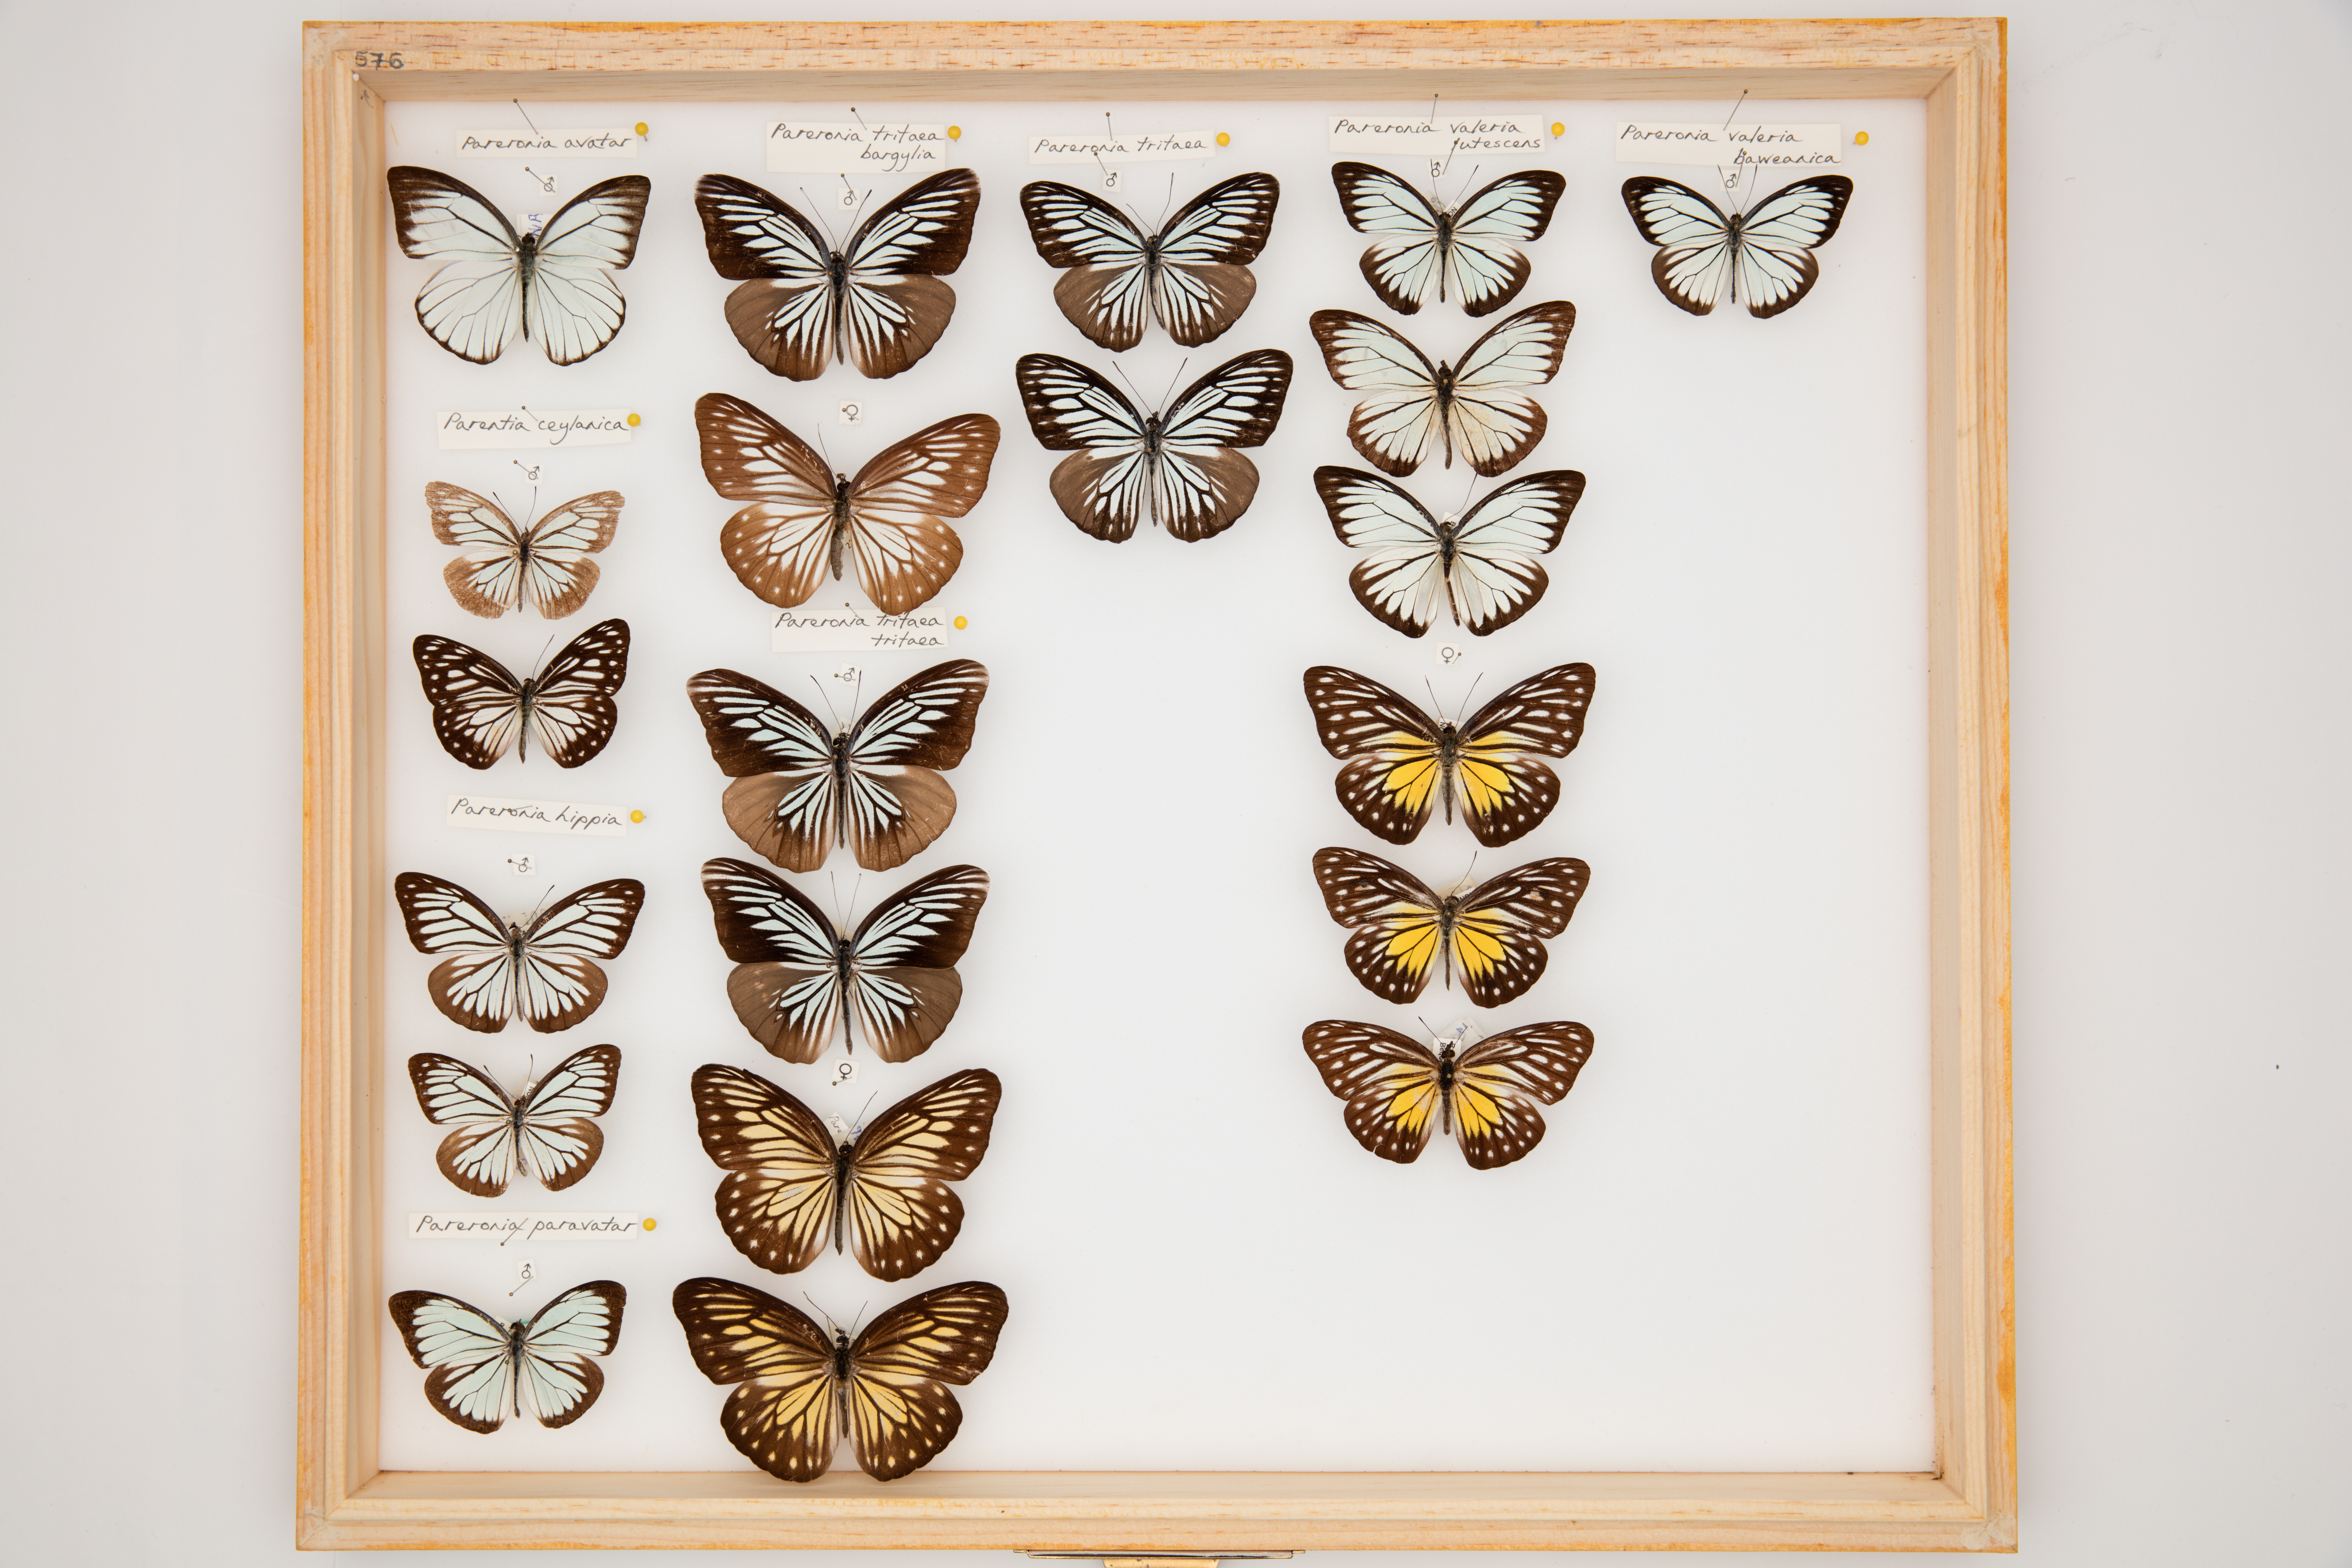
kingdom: Animalia
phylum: Arthropoda
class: Insecta
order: Lepidoptera
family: Pieridae
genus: Pareronia
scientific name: Pareronia ceylanica
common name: Dark wanderer
